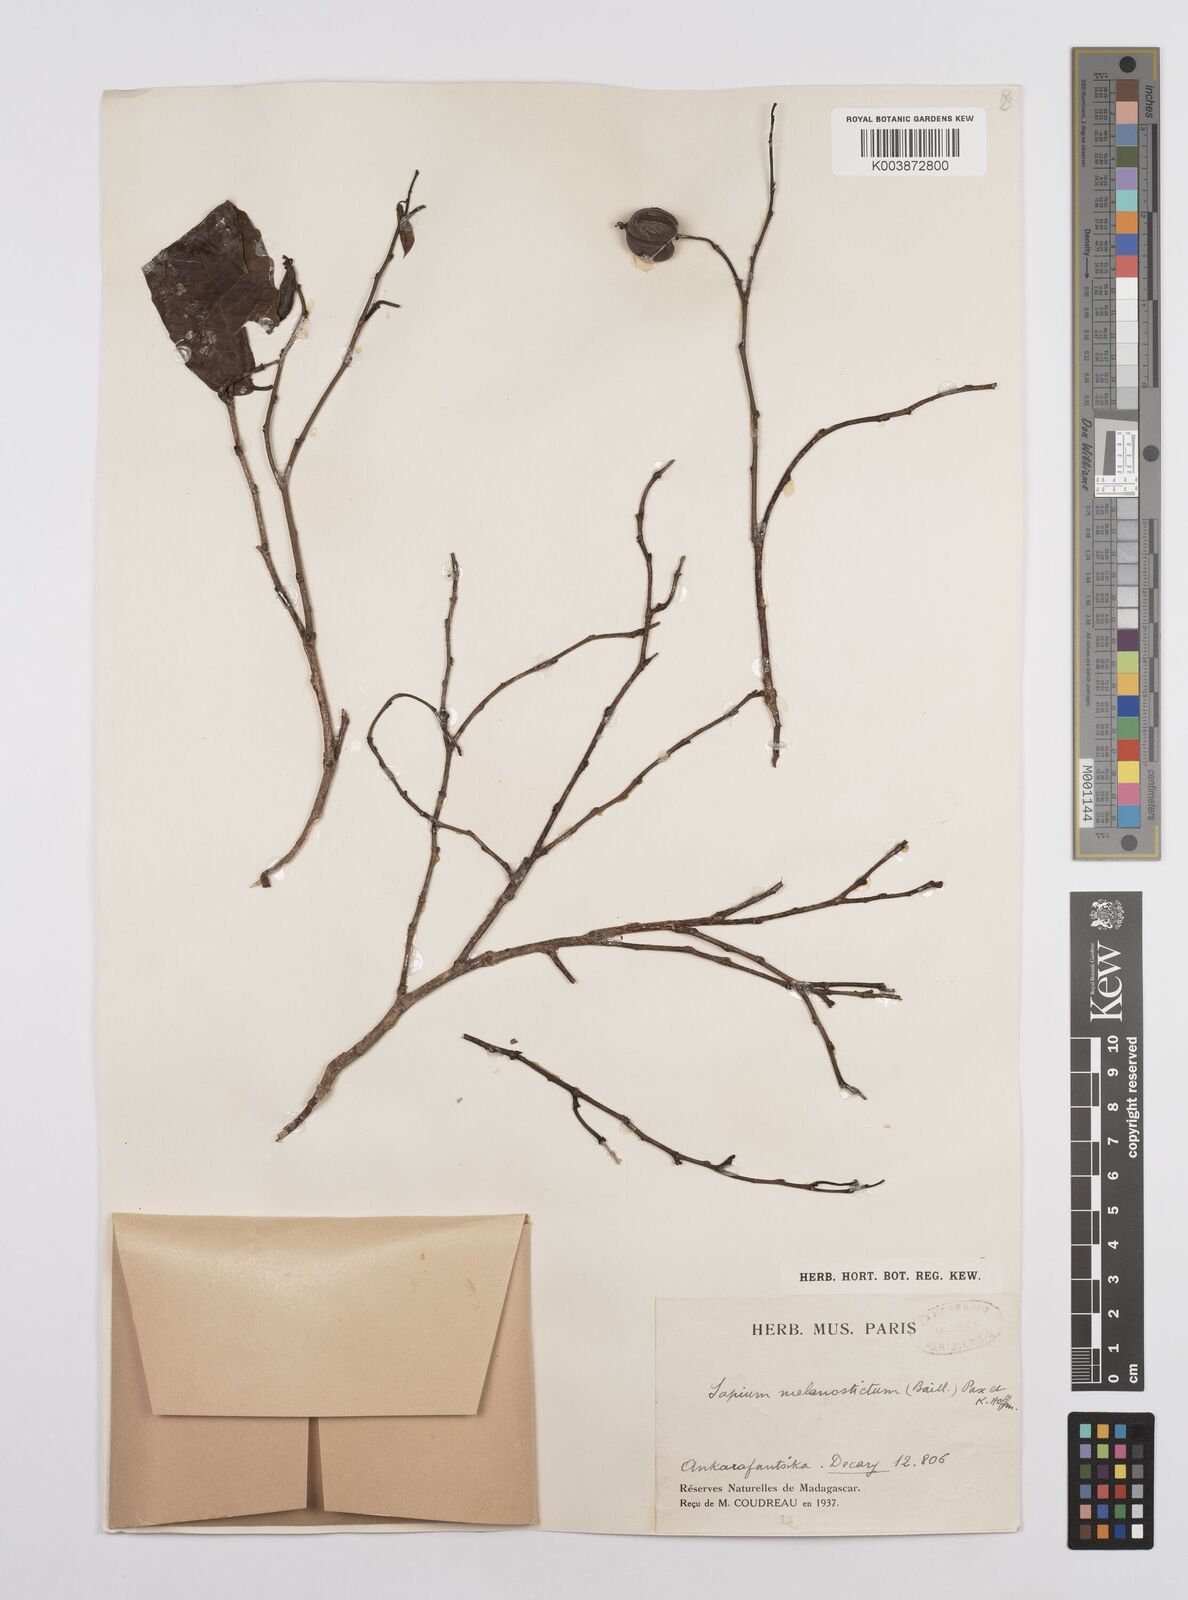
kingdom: Plantae
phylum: Tracheophyta
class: Magnoliopsida
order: Malpighiales
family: Euphorbiaceae
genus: Sclerocroton
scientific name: Sclerocroton melanostictus
